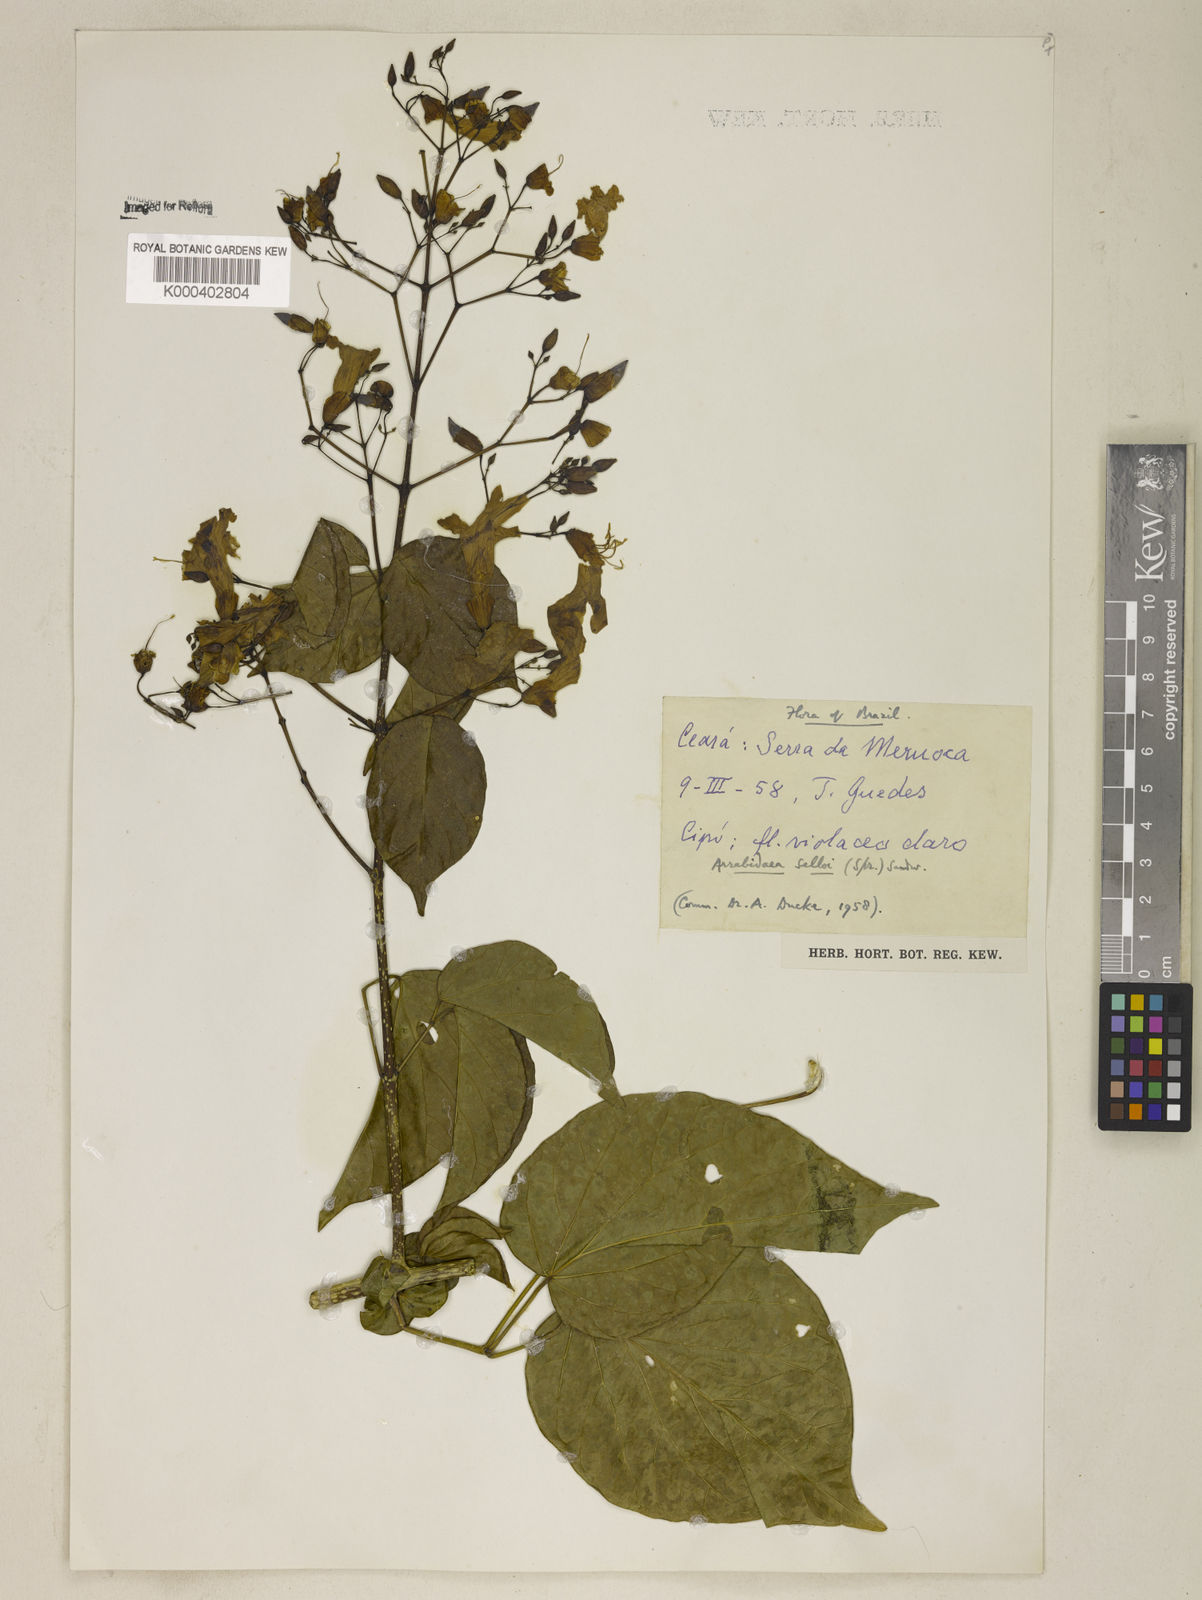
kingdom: Plantae
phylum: Tracheophyta
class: Magnoliopsida
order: Lamiales
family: Bignoniaceae
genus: Tanaecium
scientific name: Tanaecium selloi
